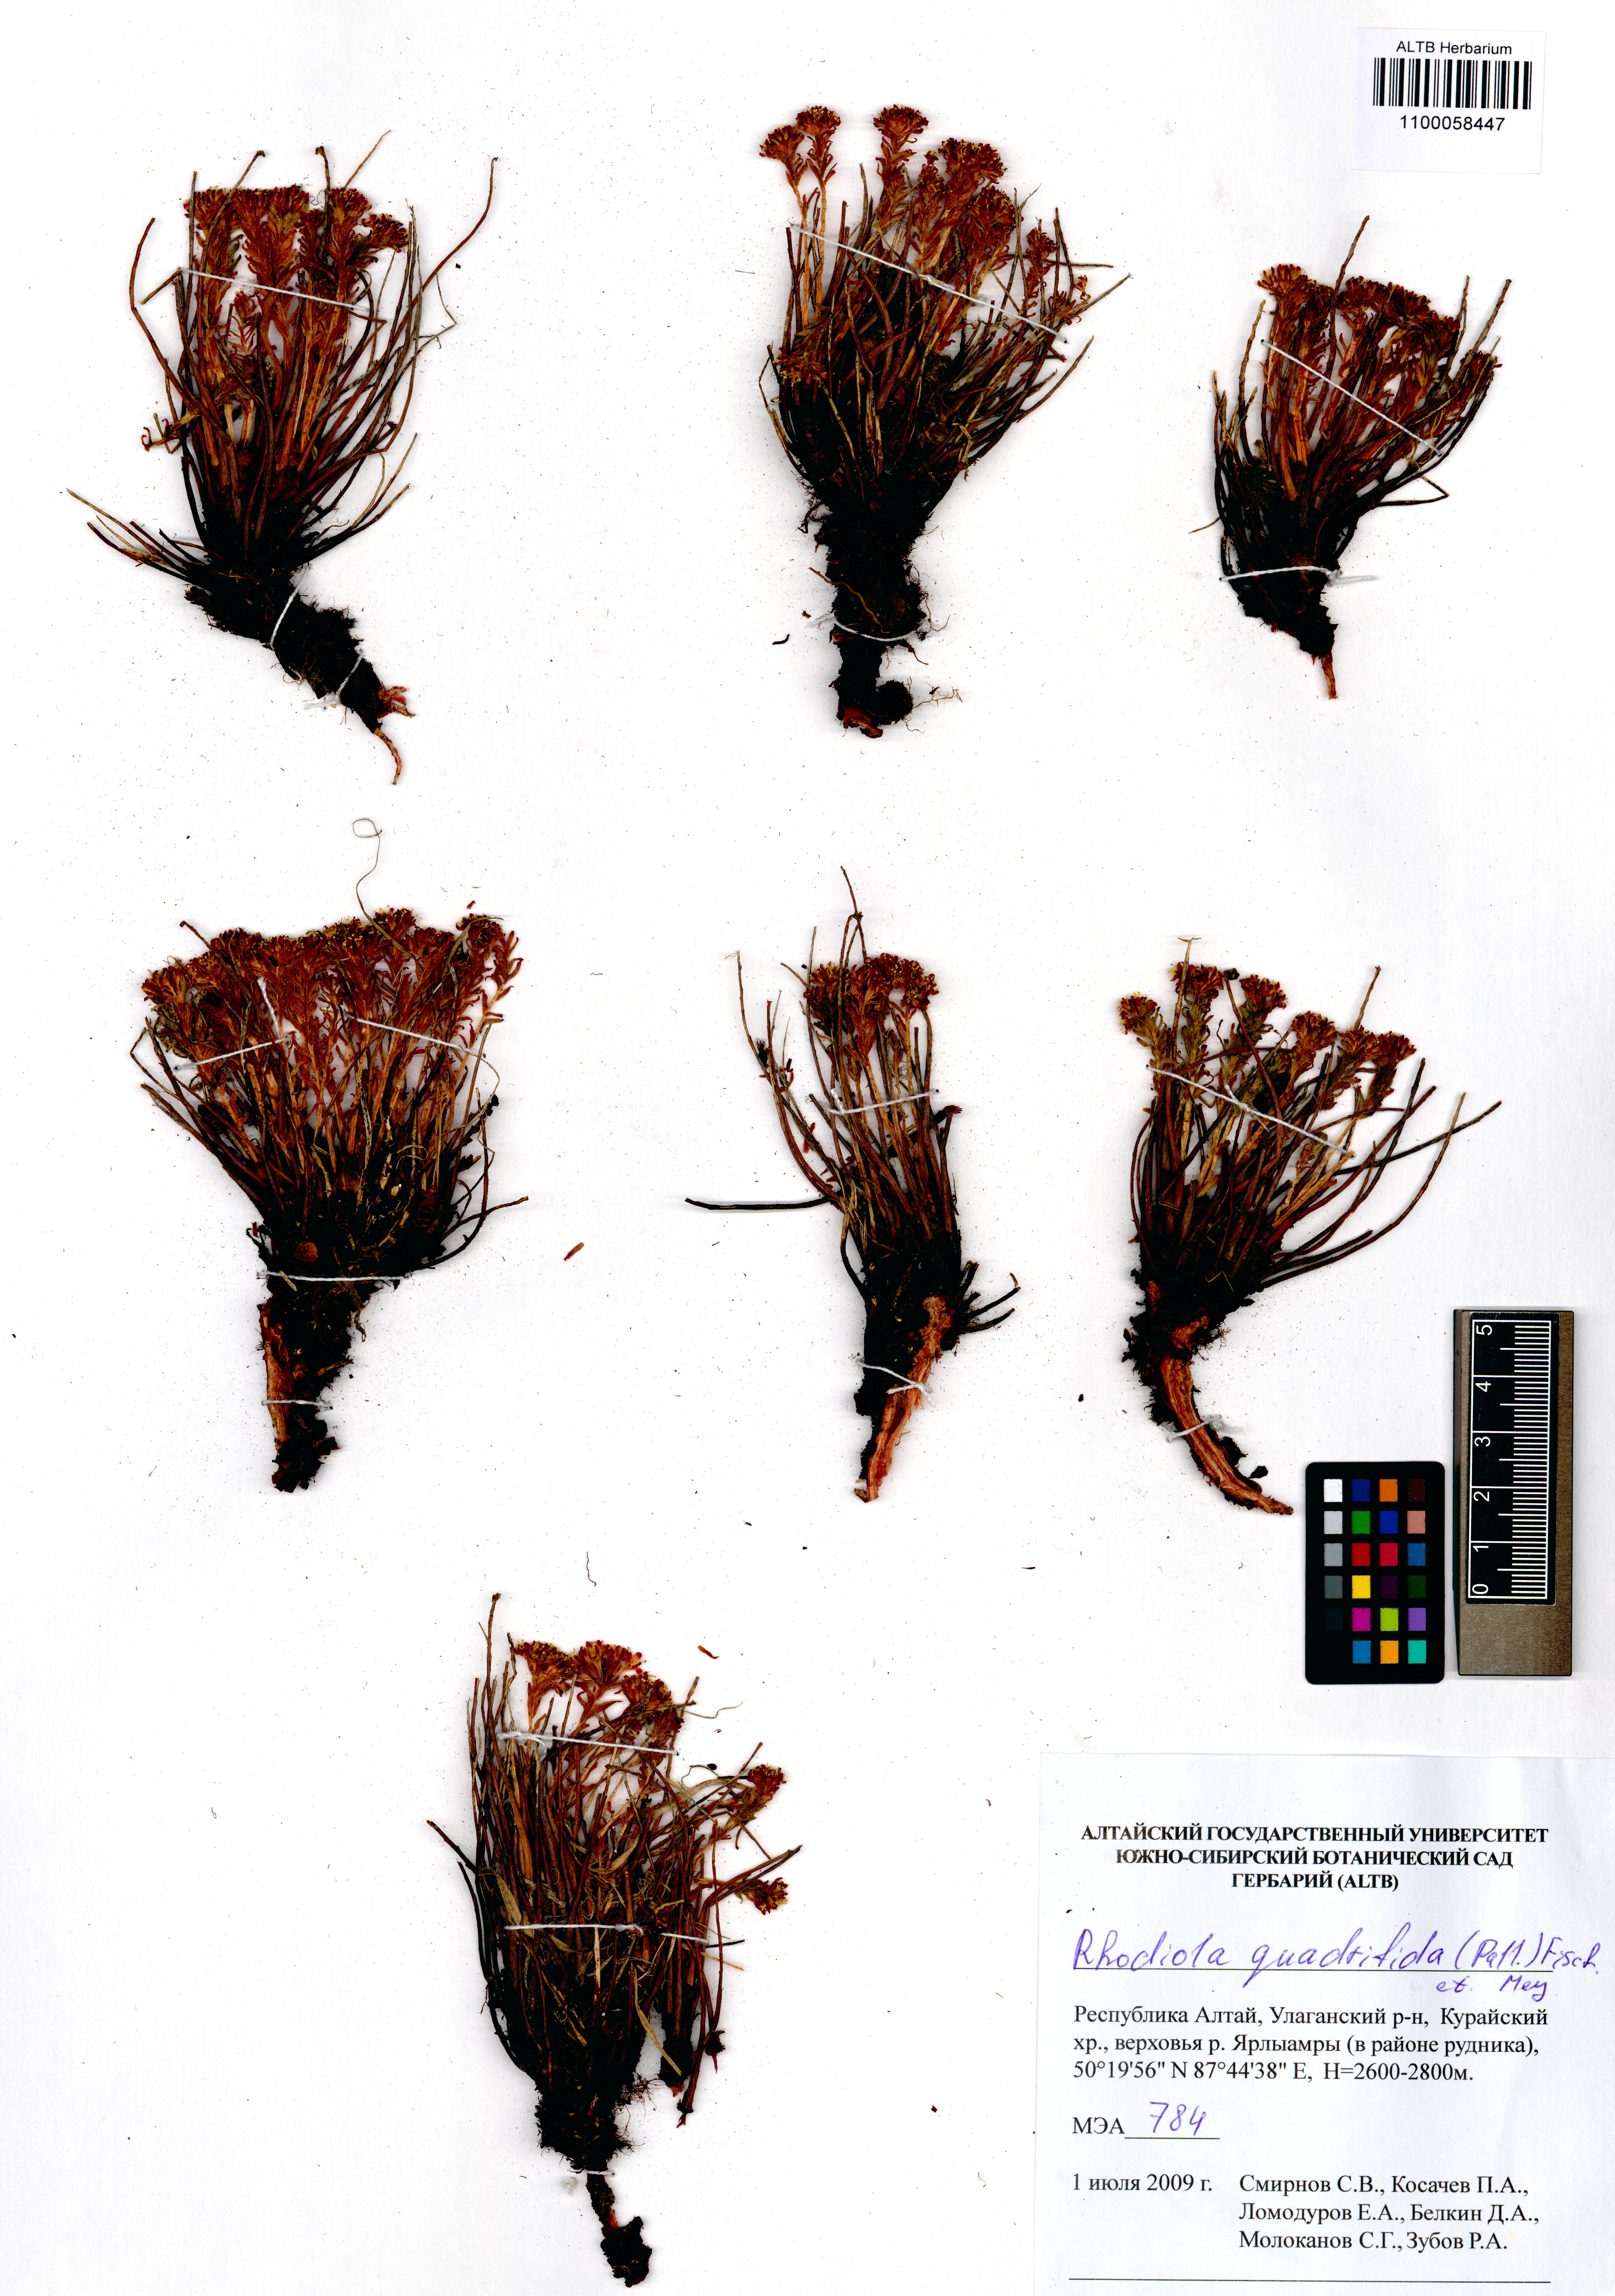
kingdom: Plantae
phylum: Tracheophyta
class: Magnoliopsida
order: Saxifragales
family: Crassulaceae
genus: Rhodiola
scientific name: Rhodiola quadrifida
